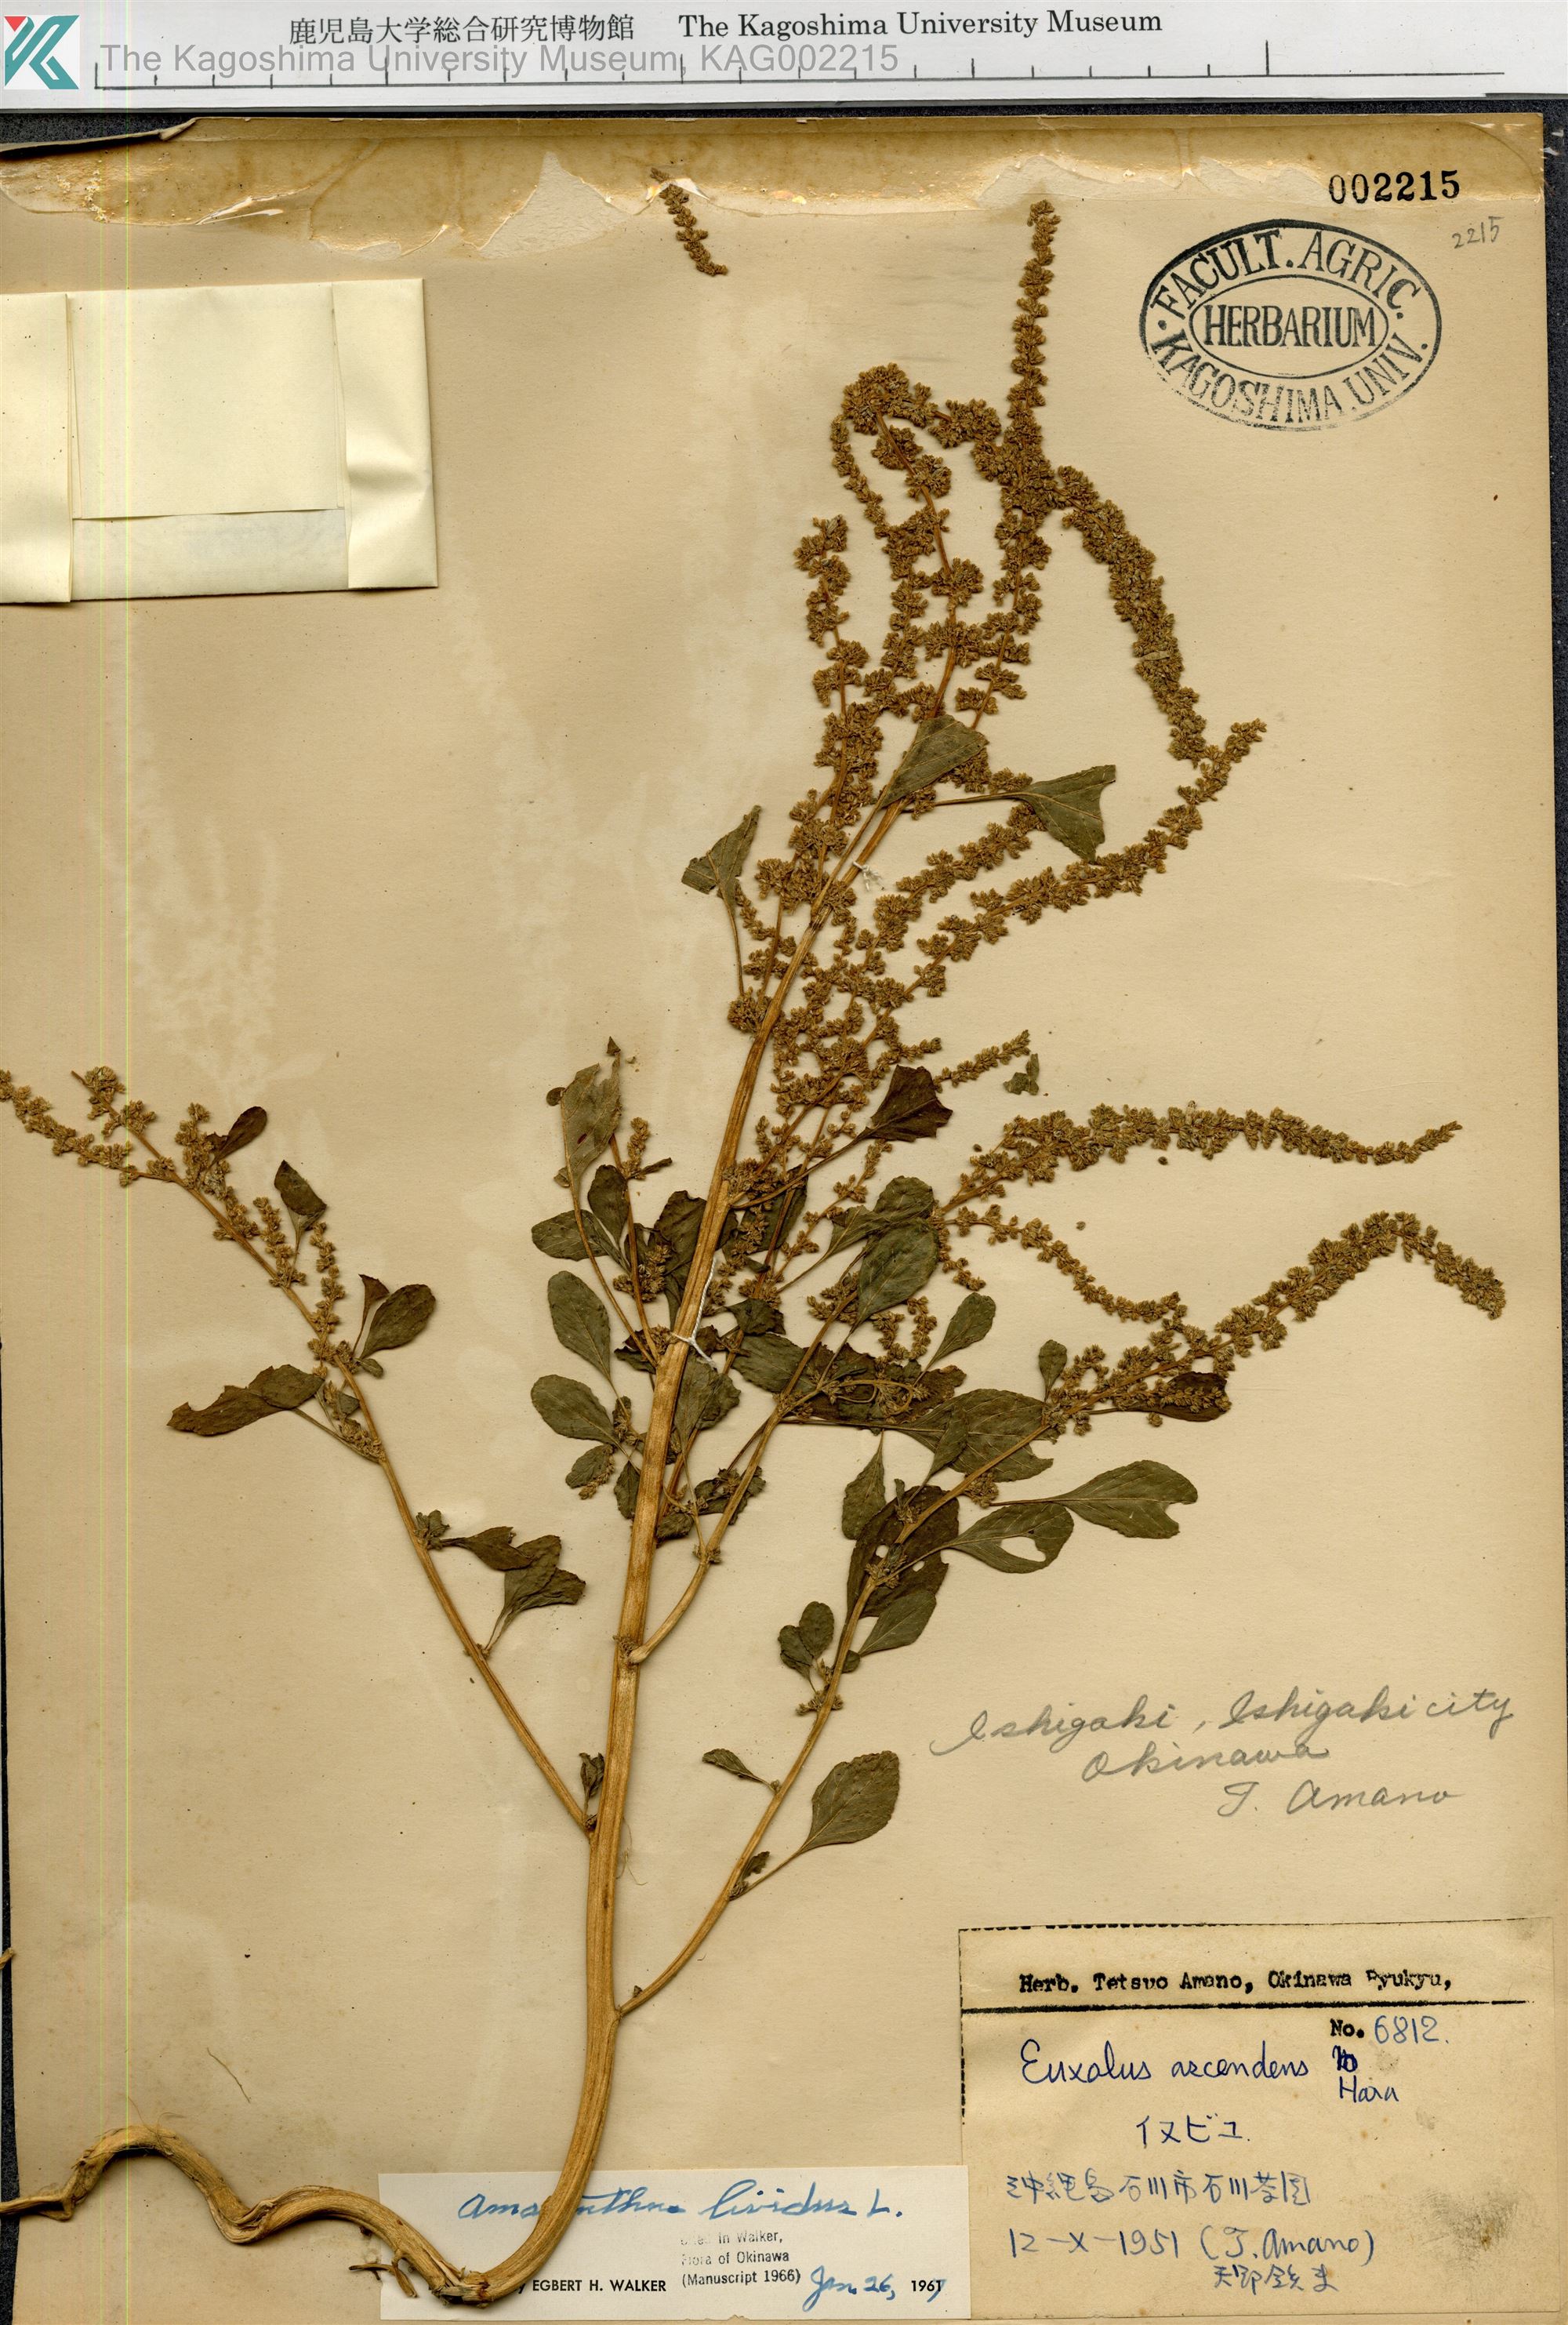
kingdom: Plantae
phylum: Tracheophyta
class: Magnoliopsida
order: Caryophyllales
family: Amaranthaceae
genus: Amaranthus
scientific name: Amaranthus blitum
